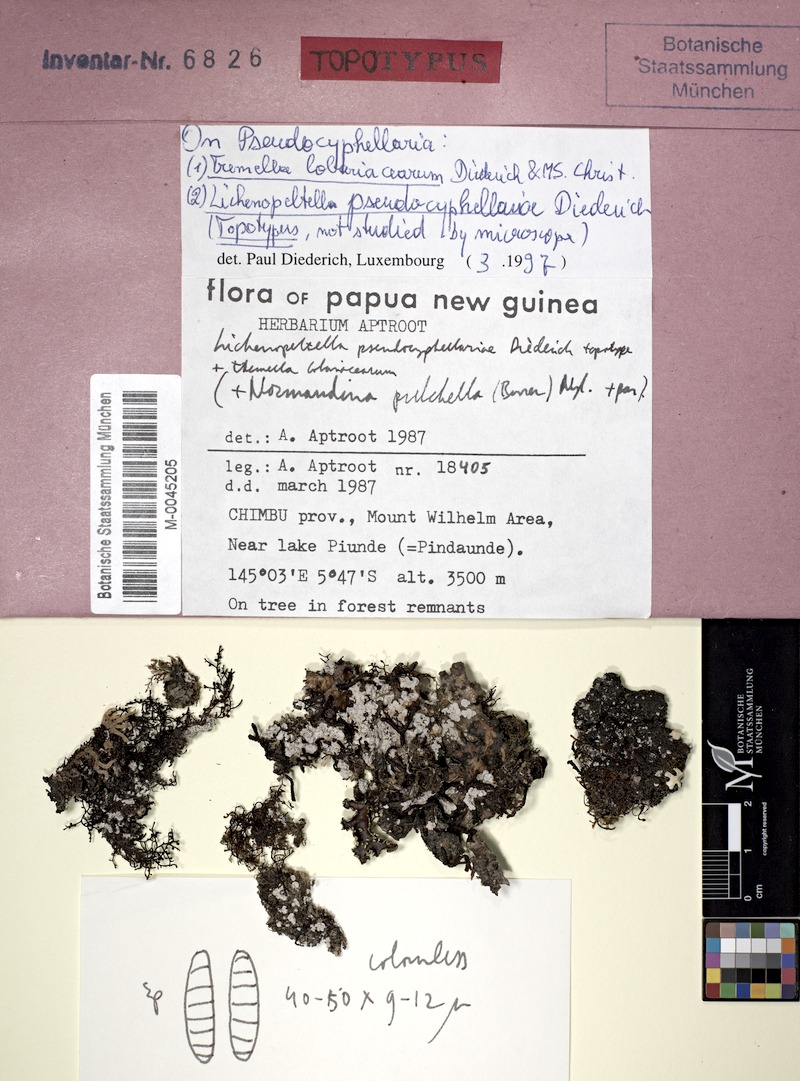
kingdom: Fungi
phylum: Basidiomycota
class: Tremellomycetes
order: Tremellales
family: Tremellaceae
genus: Tremella
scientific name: Tremella lobariacearum
